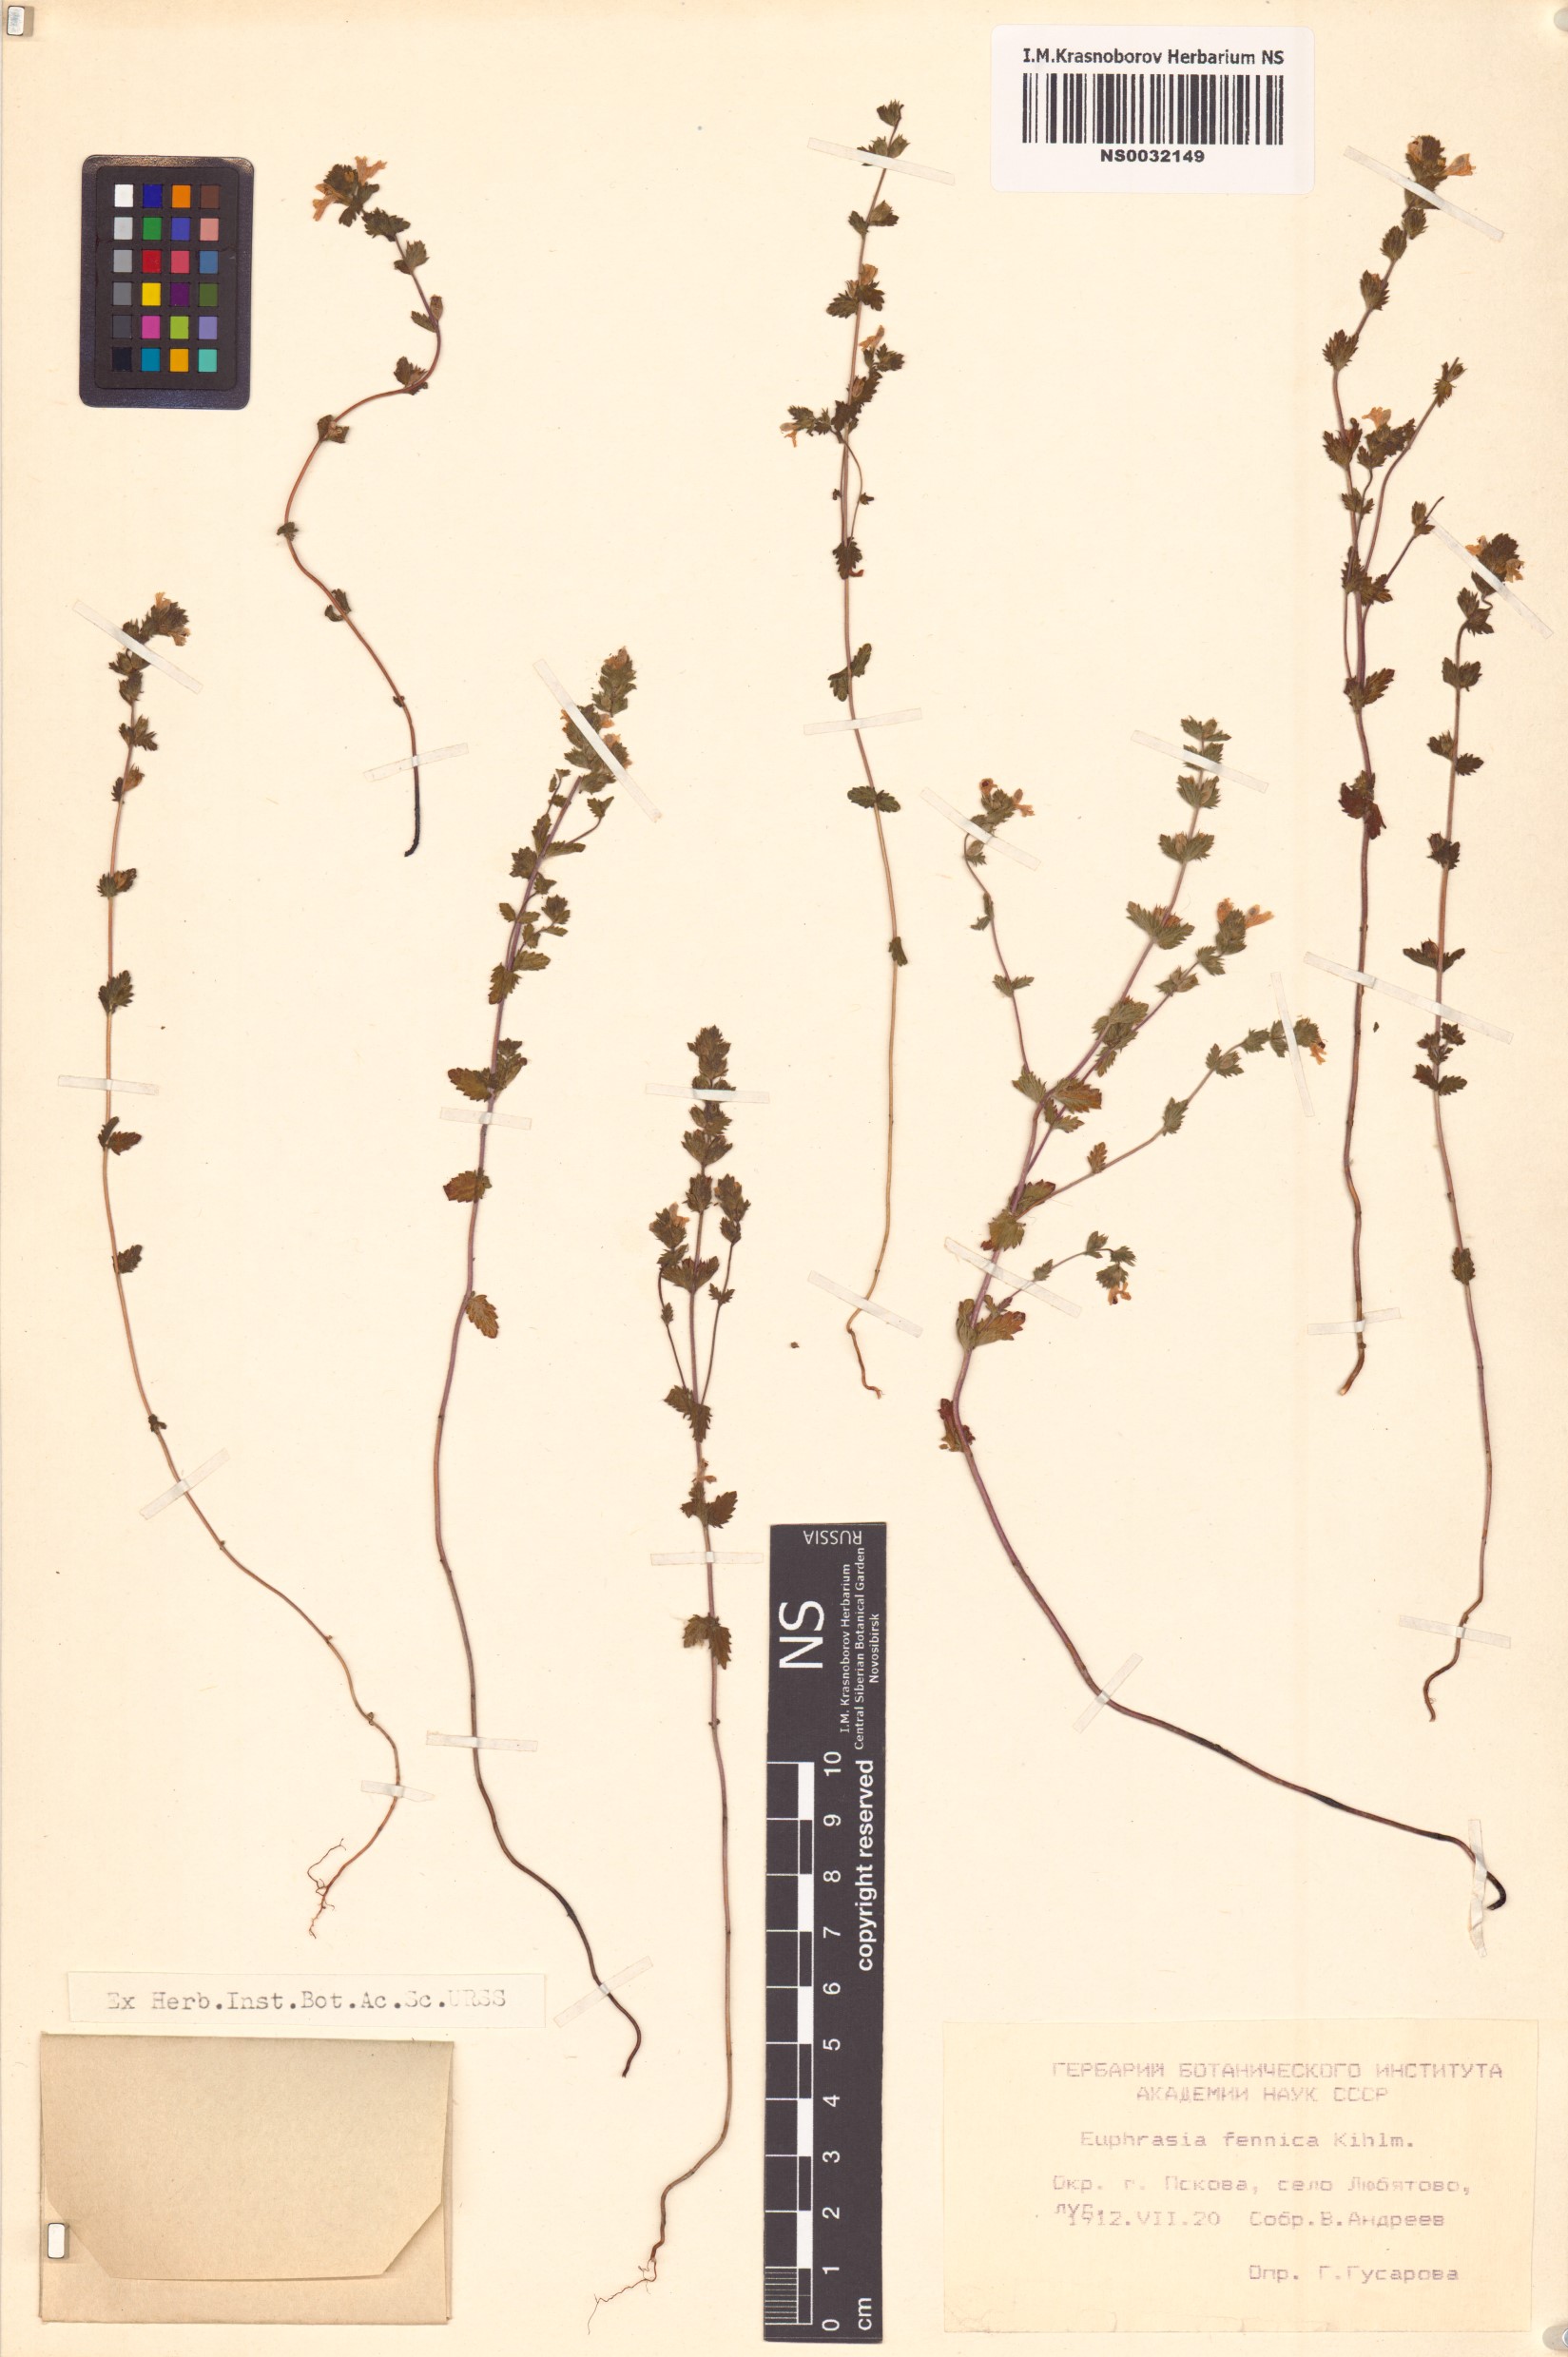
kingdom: Plantae
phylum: Tracheophyta
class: Magnoliopsida
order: Lamiales
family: Orobanchaceae
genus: Euphrasia
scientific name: Euphrasia officinalis
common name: Eyebright
